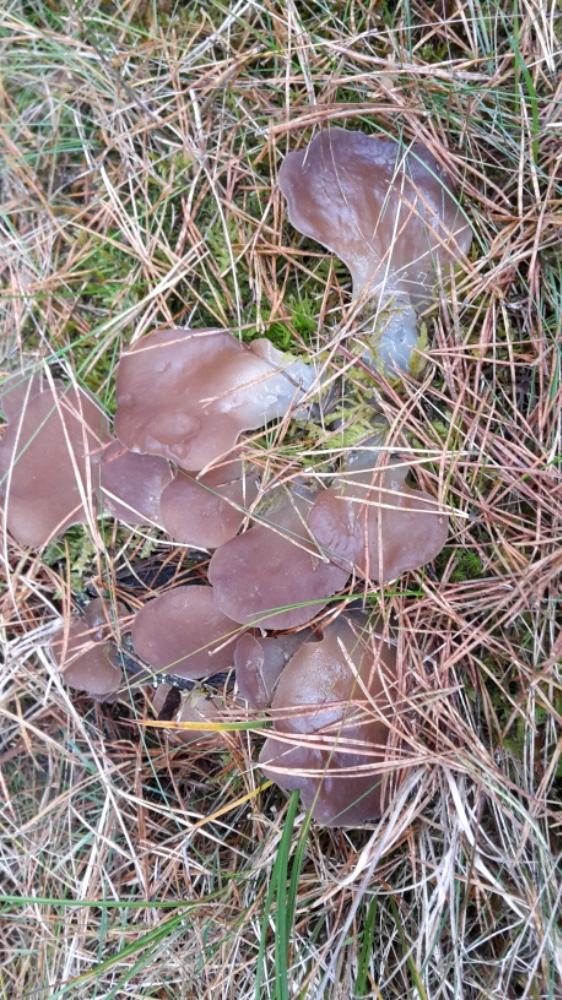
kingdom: Fungi
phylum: Basidiomycota
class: Agaricomycetes
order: Auriculariales
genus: Pseudohydnum
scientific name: Pseudohydnum gelatinosum
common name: bævretand
